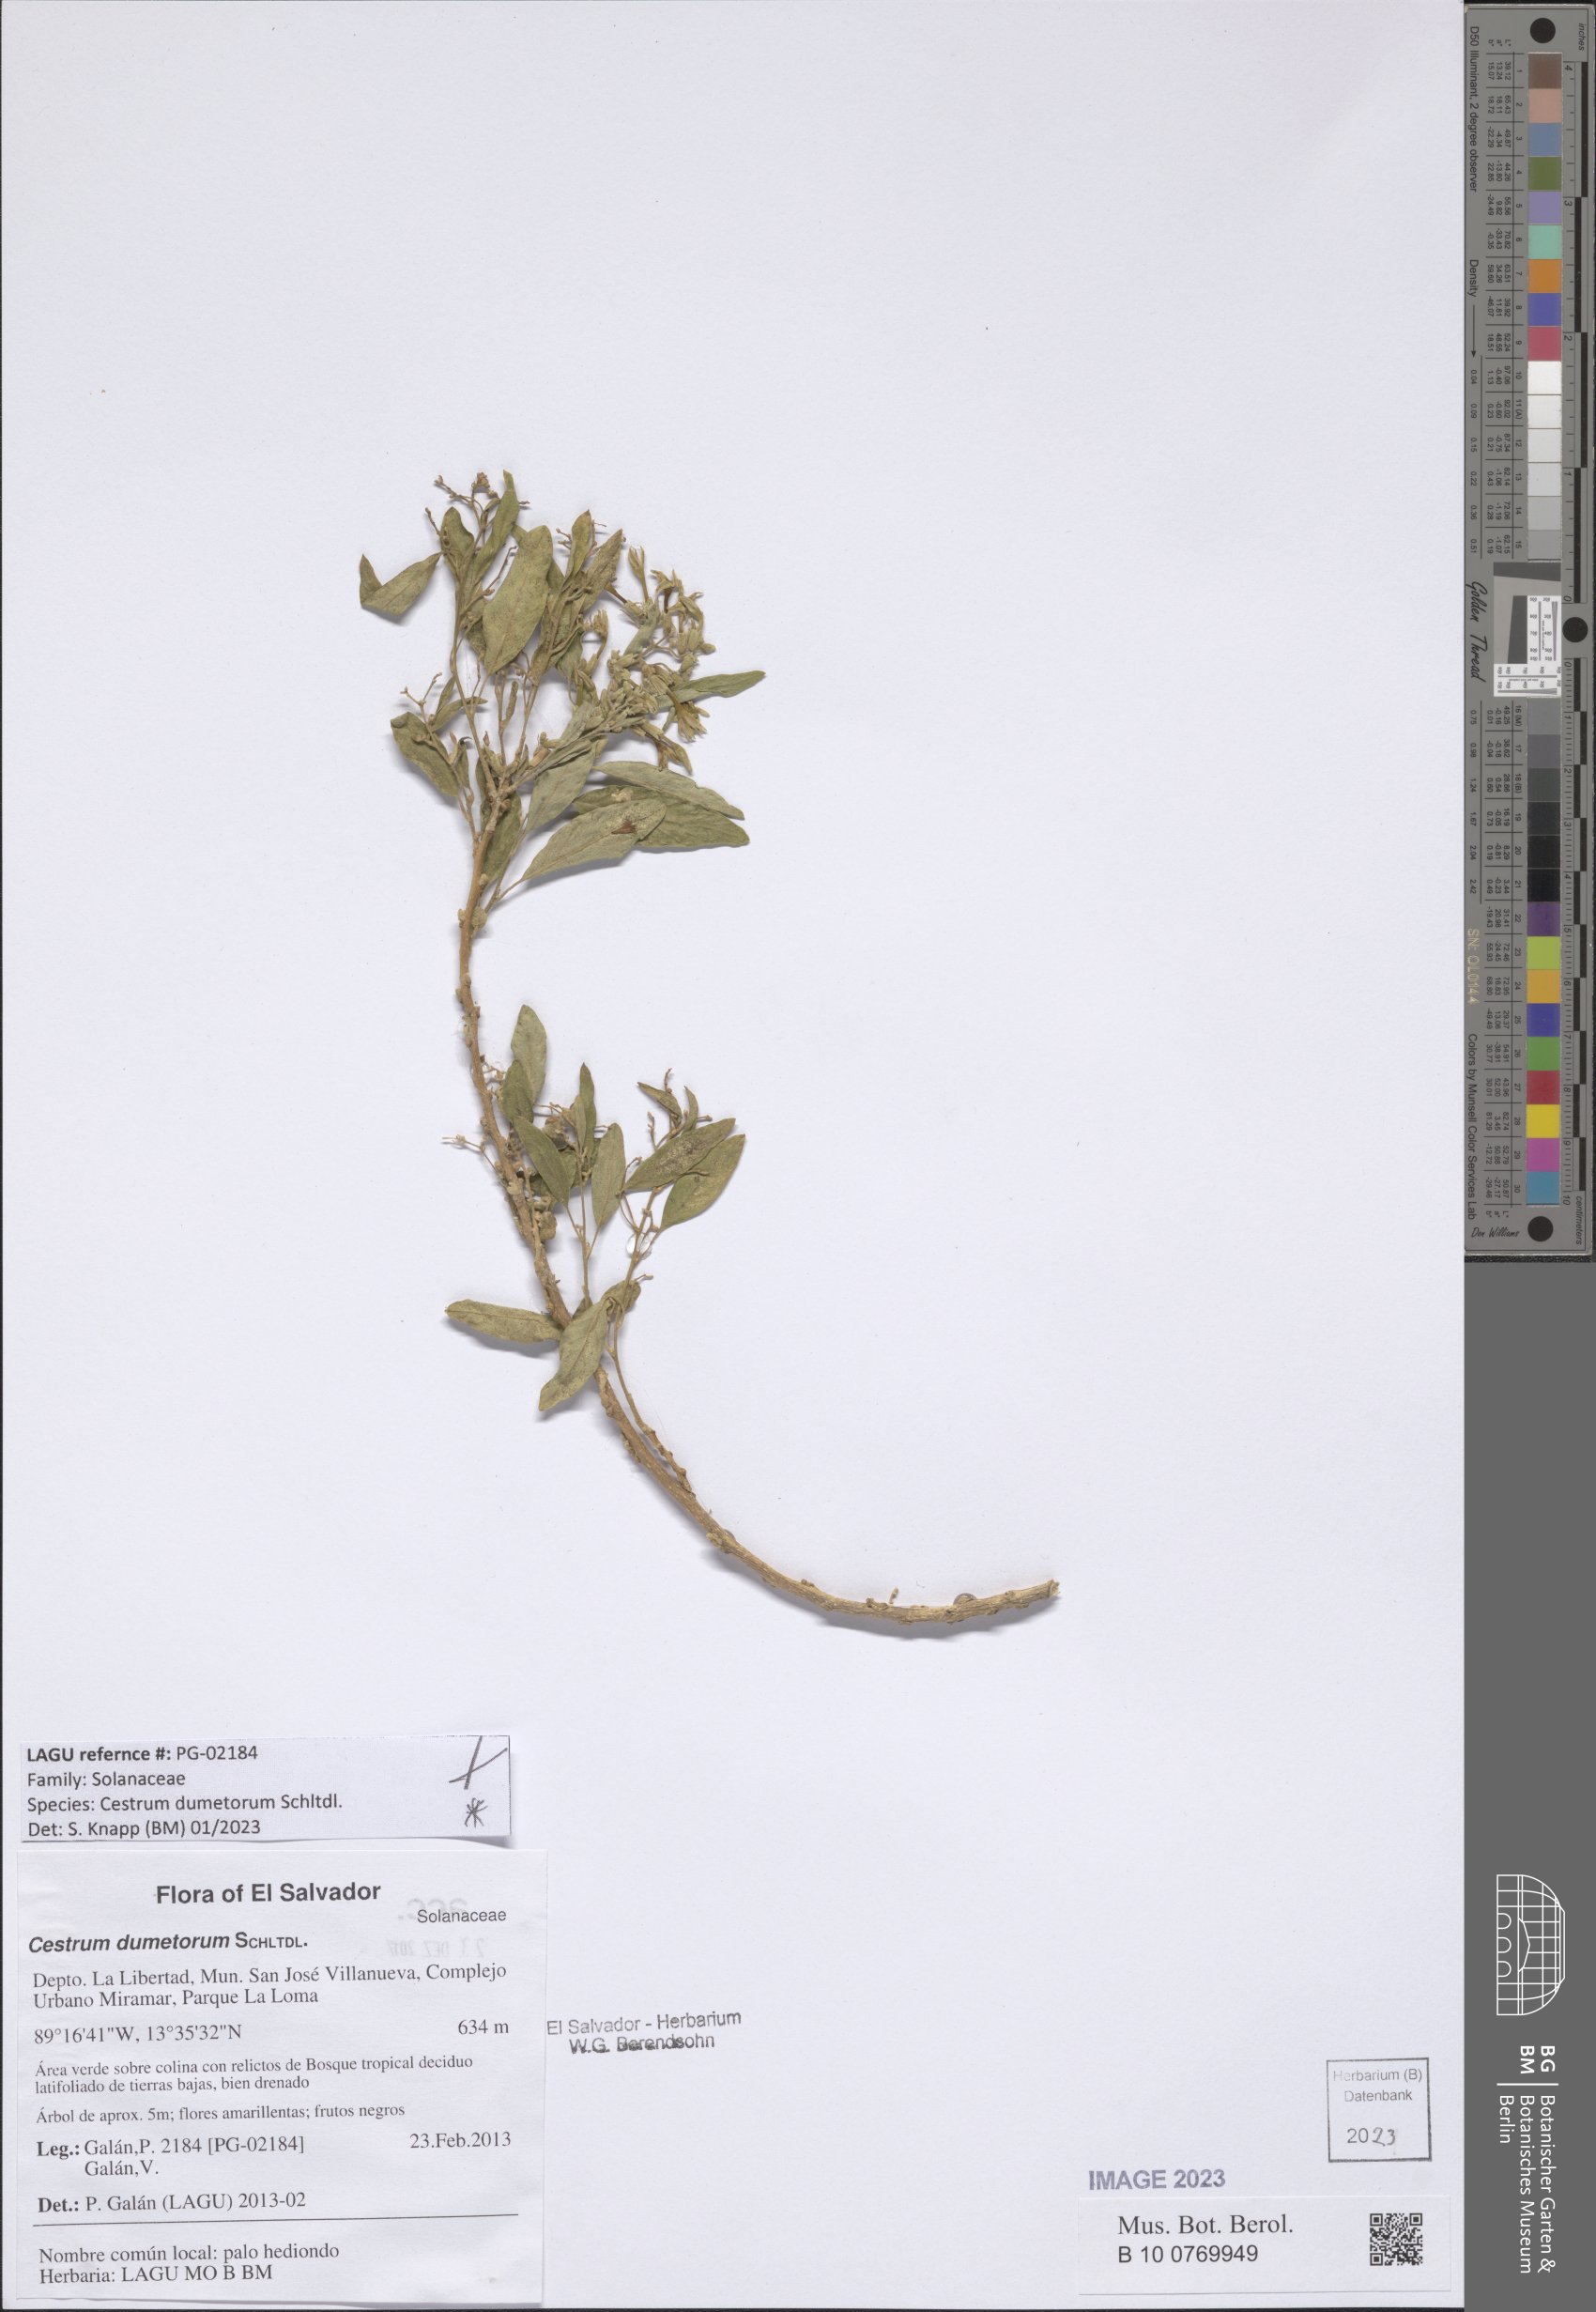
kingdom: Plantae
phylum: Tracheophyta
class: Magnoliopsida
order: Solanales
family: Solanaceae
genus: Cestrum
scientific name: Cestrum dumetorum
